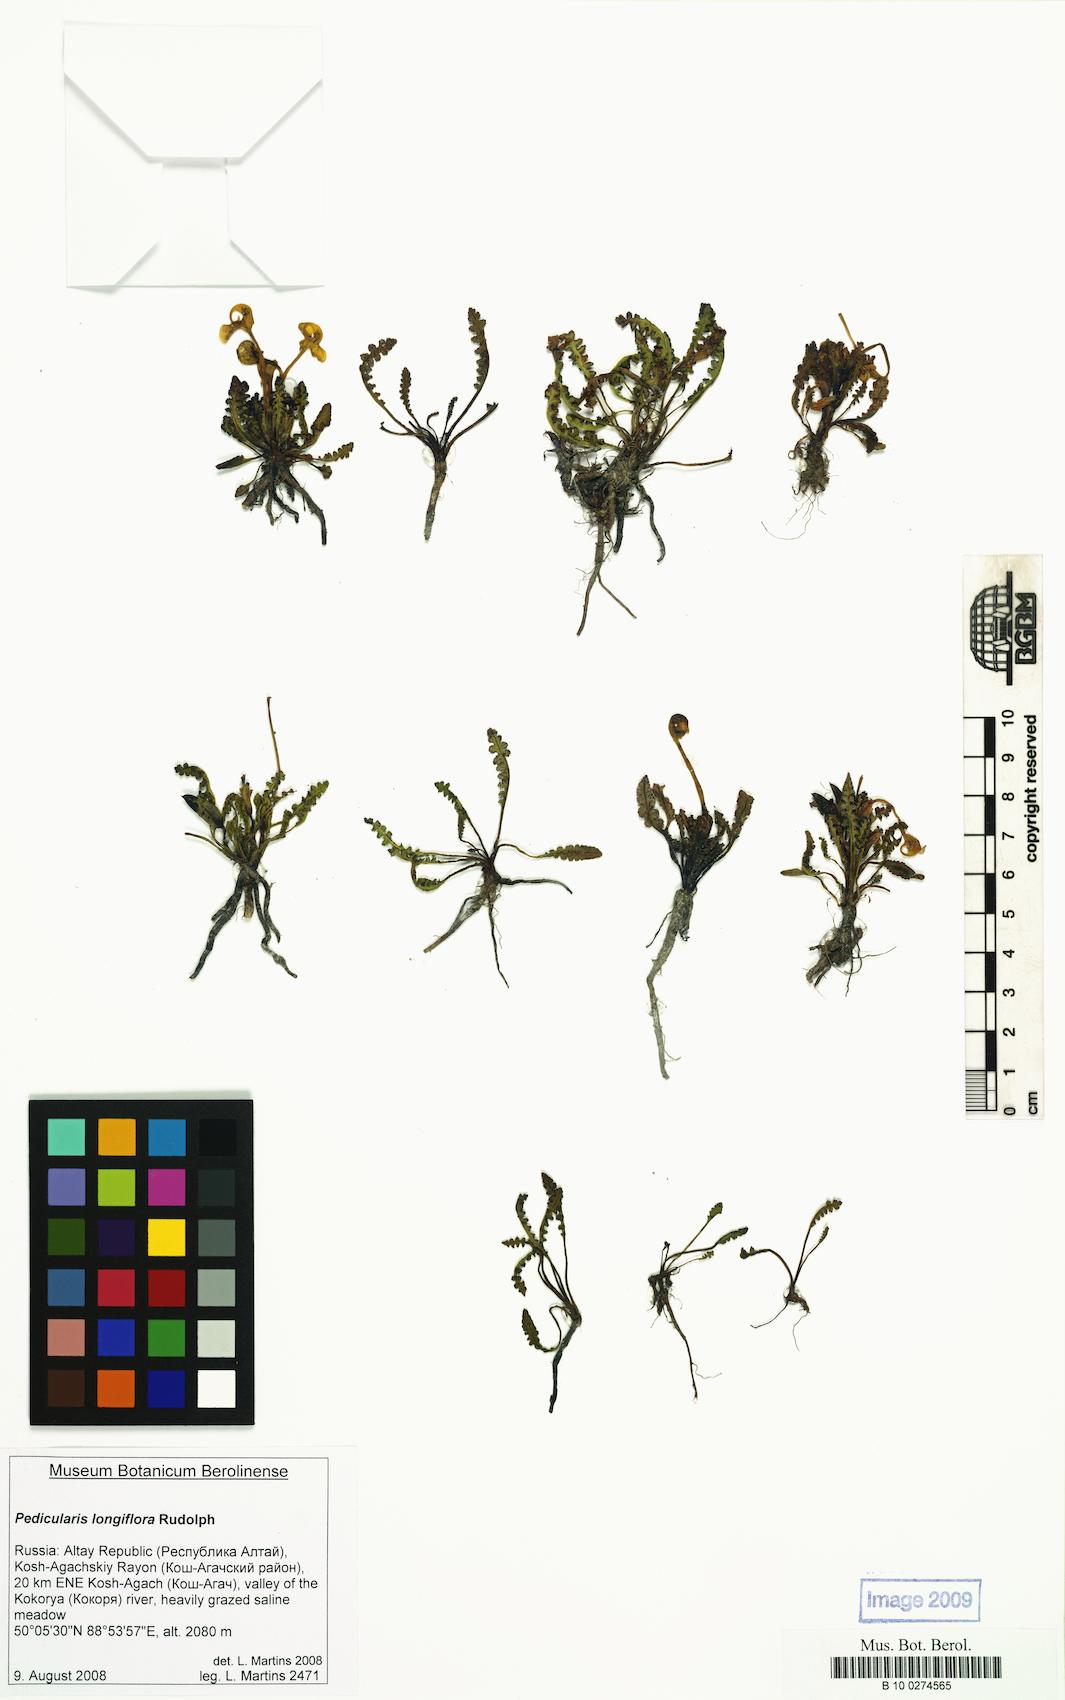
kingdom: Plantae
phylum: Tracheophyta
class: Magnoliopsida
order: Lamiales
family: Orobanchaceae
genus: Pedicularis
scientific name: Pedicularis longiflora
